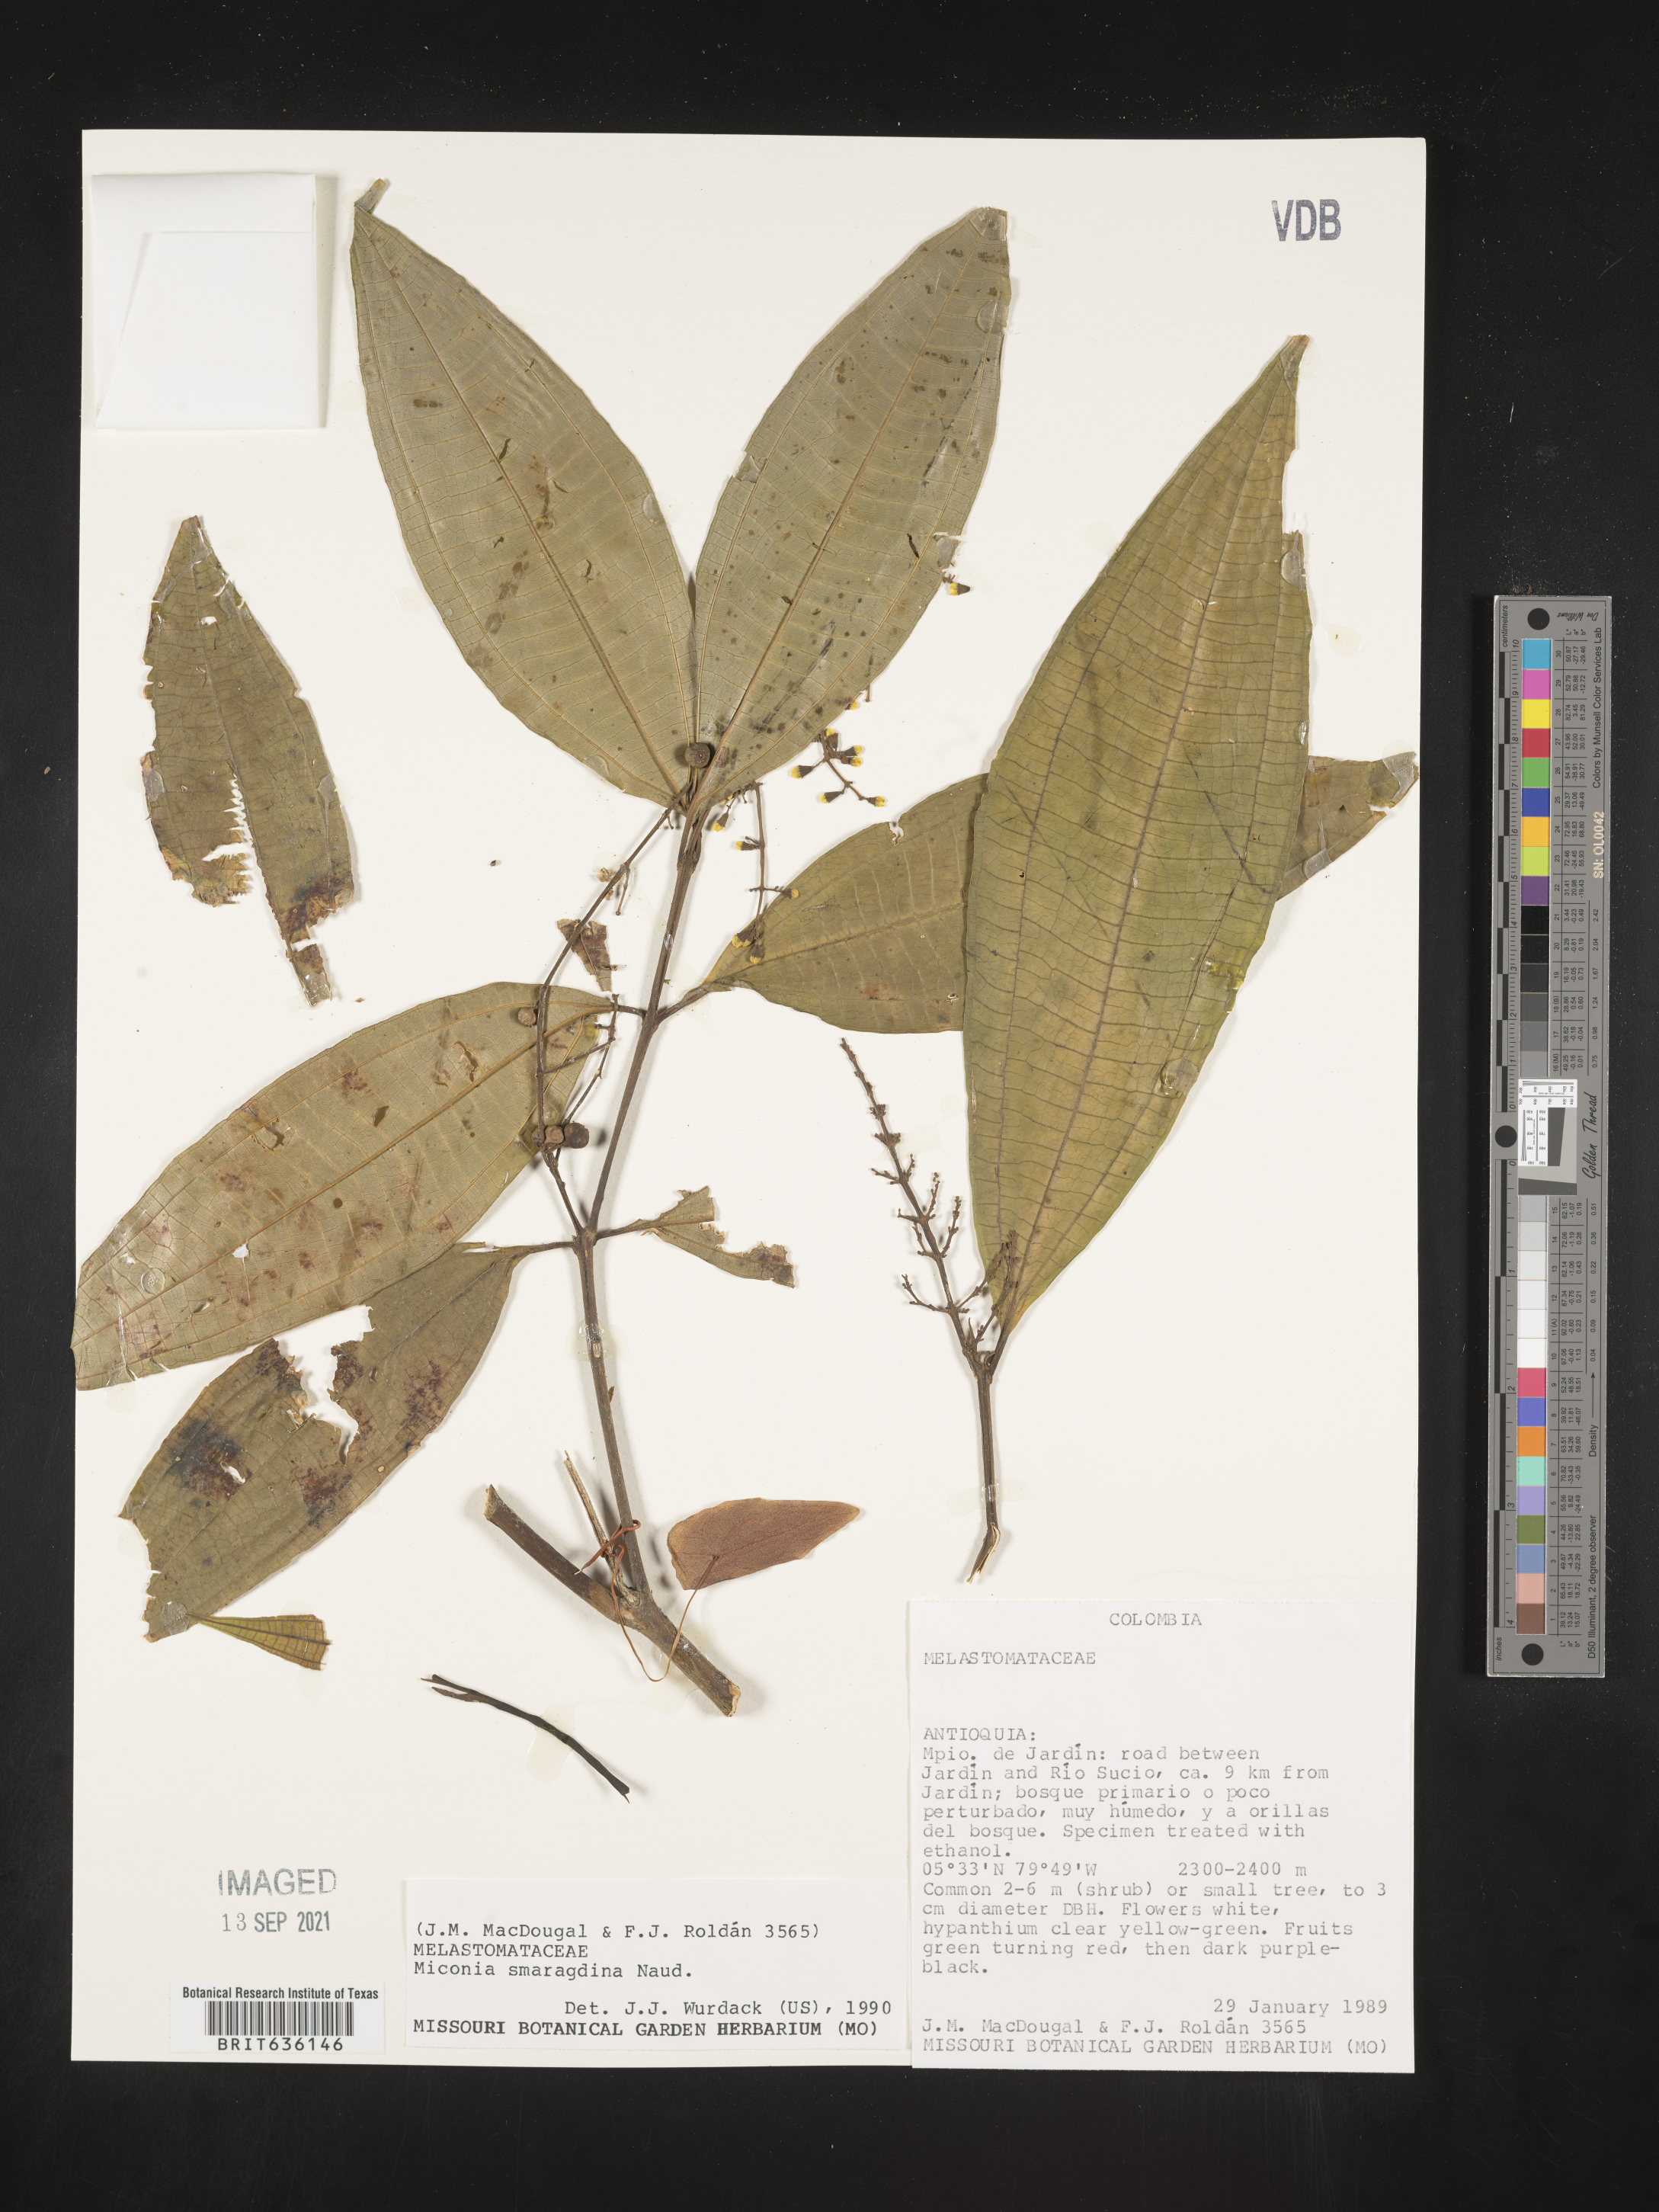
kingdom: Plantae
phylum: Tracheophyta
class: Magnoliopsida
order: Myrtales
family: Melastomataceae
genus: Miconia
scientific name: Miconia
